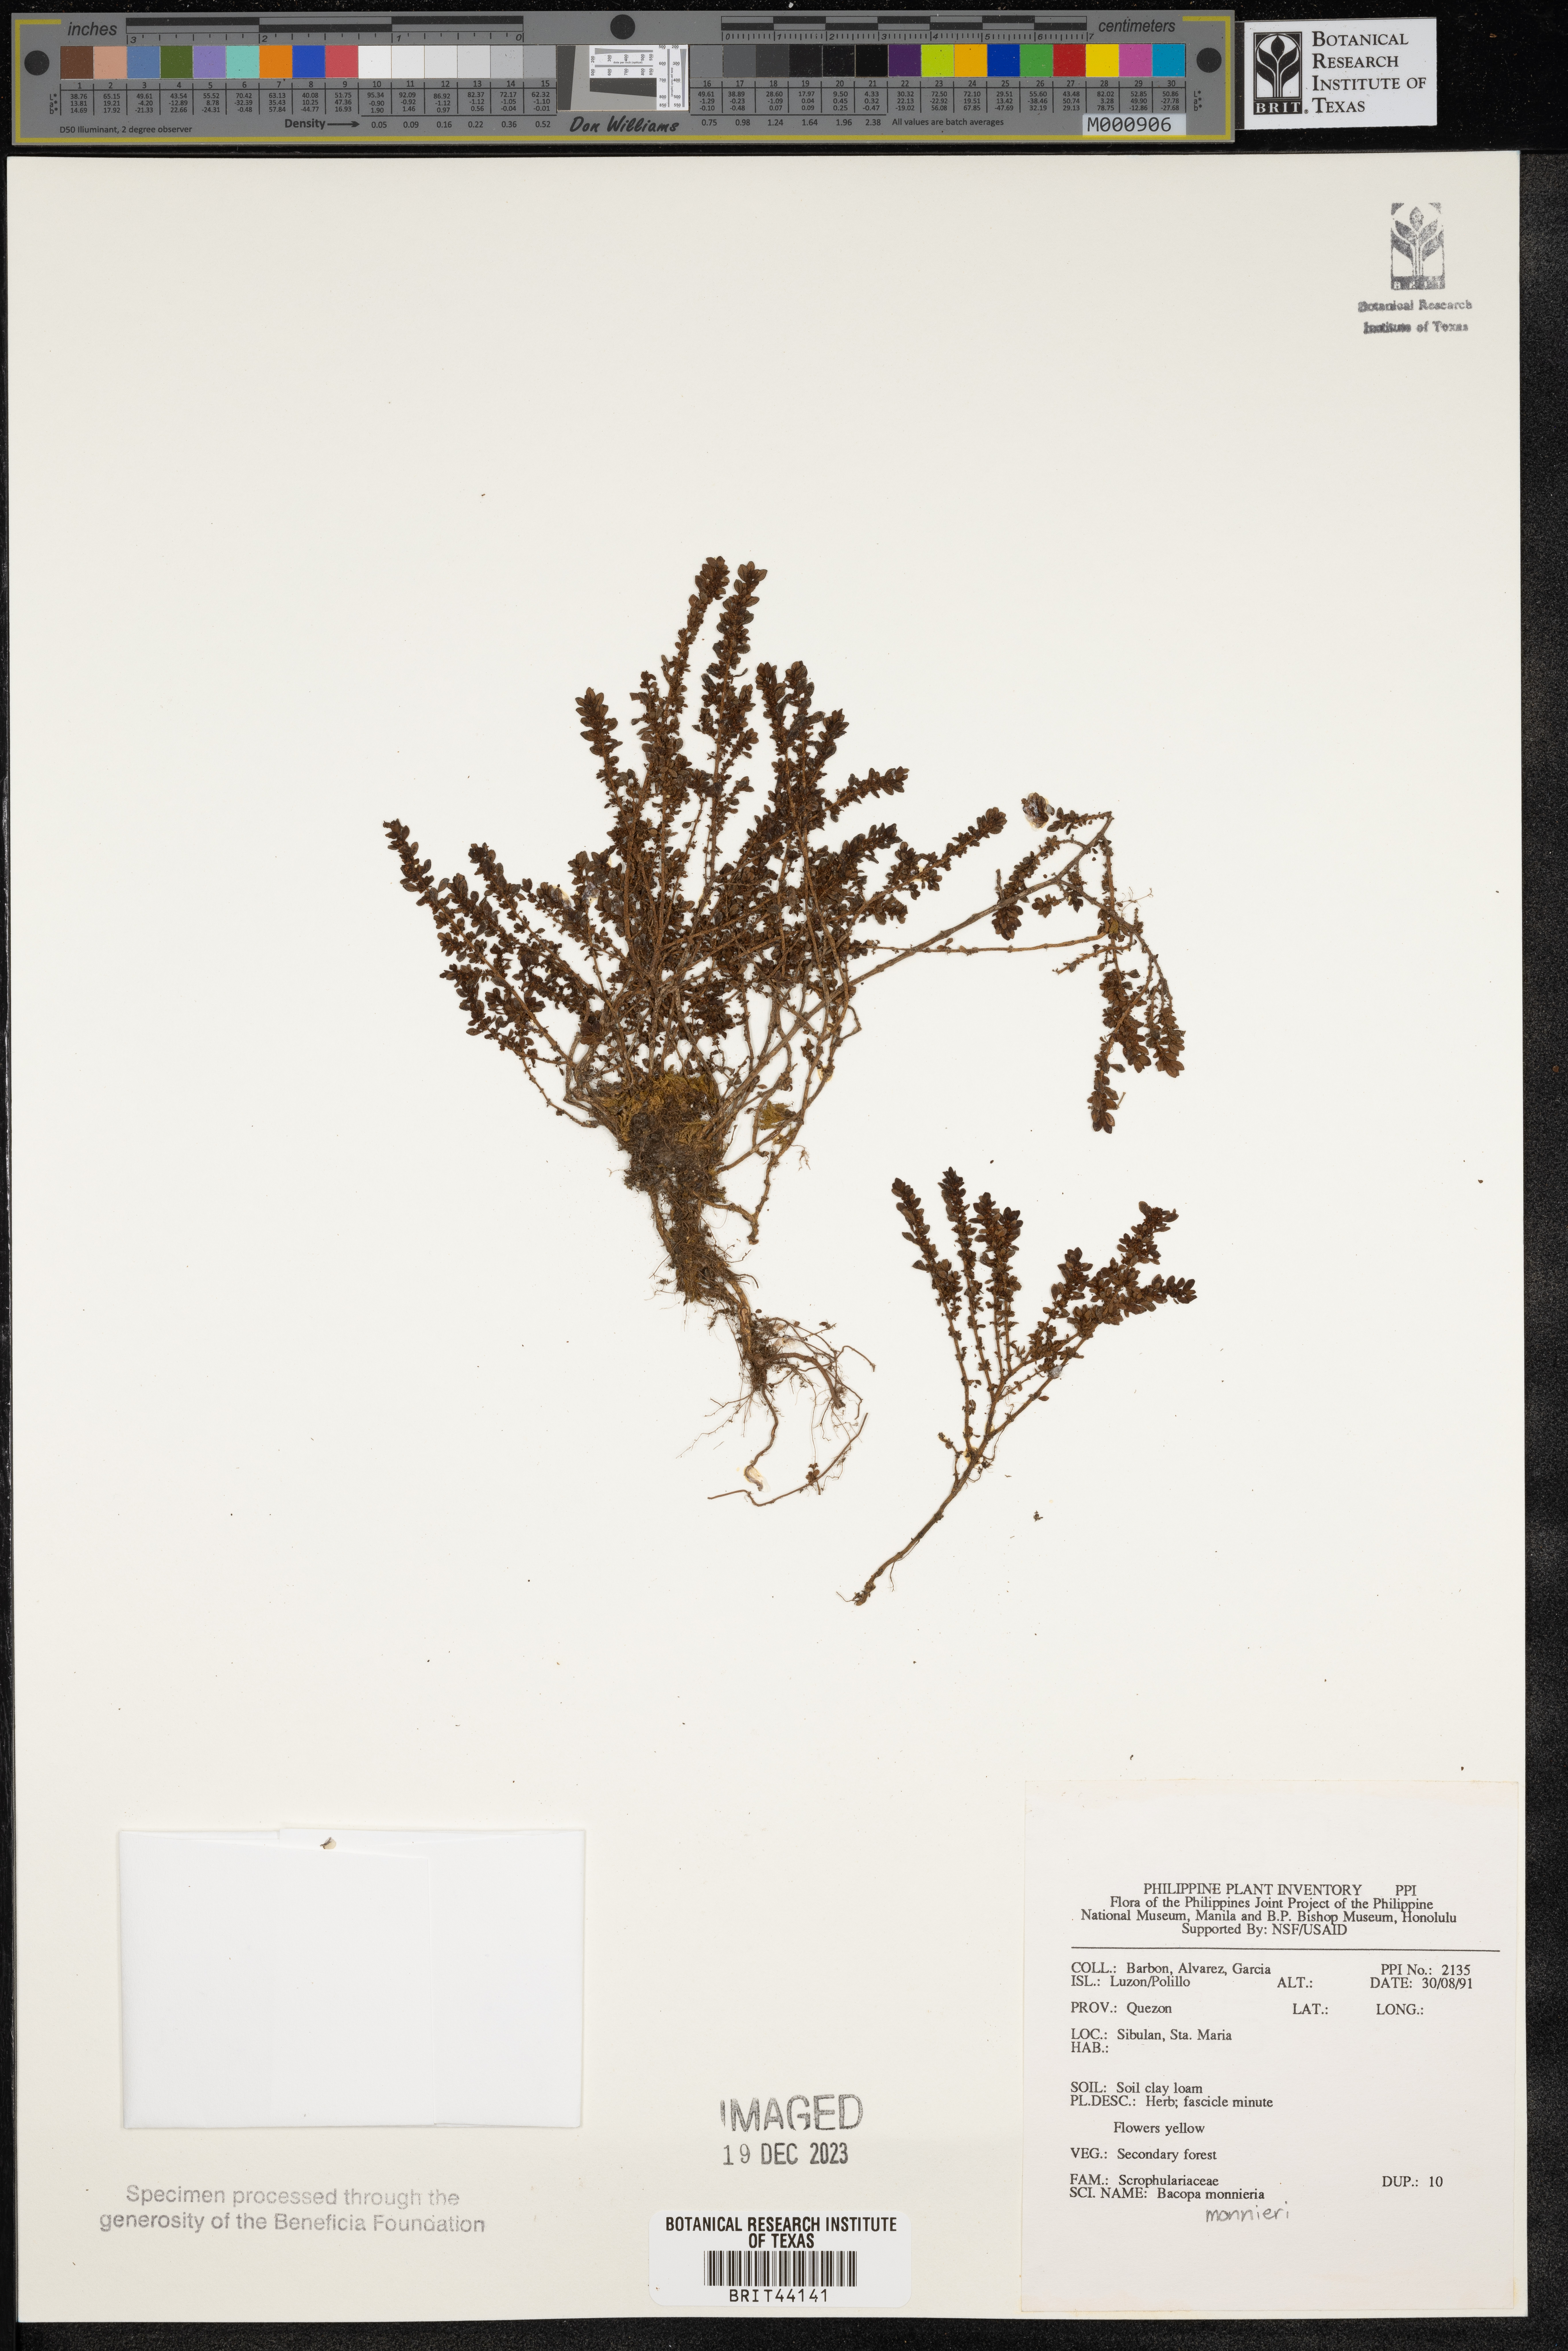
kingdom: Plantae
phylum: Tracheophyta
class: Magnoliopsida
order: Lamiales
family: Plantaginaceae
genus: Bacopa
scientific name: Bacopa monnieri
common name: Indian-pennywort
